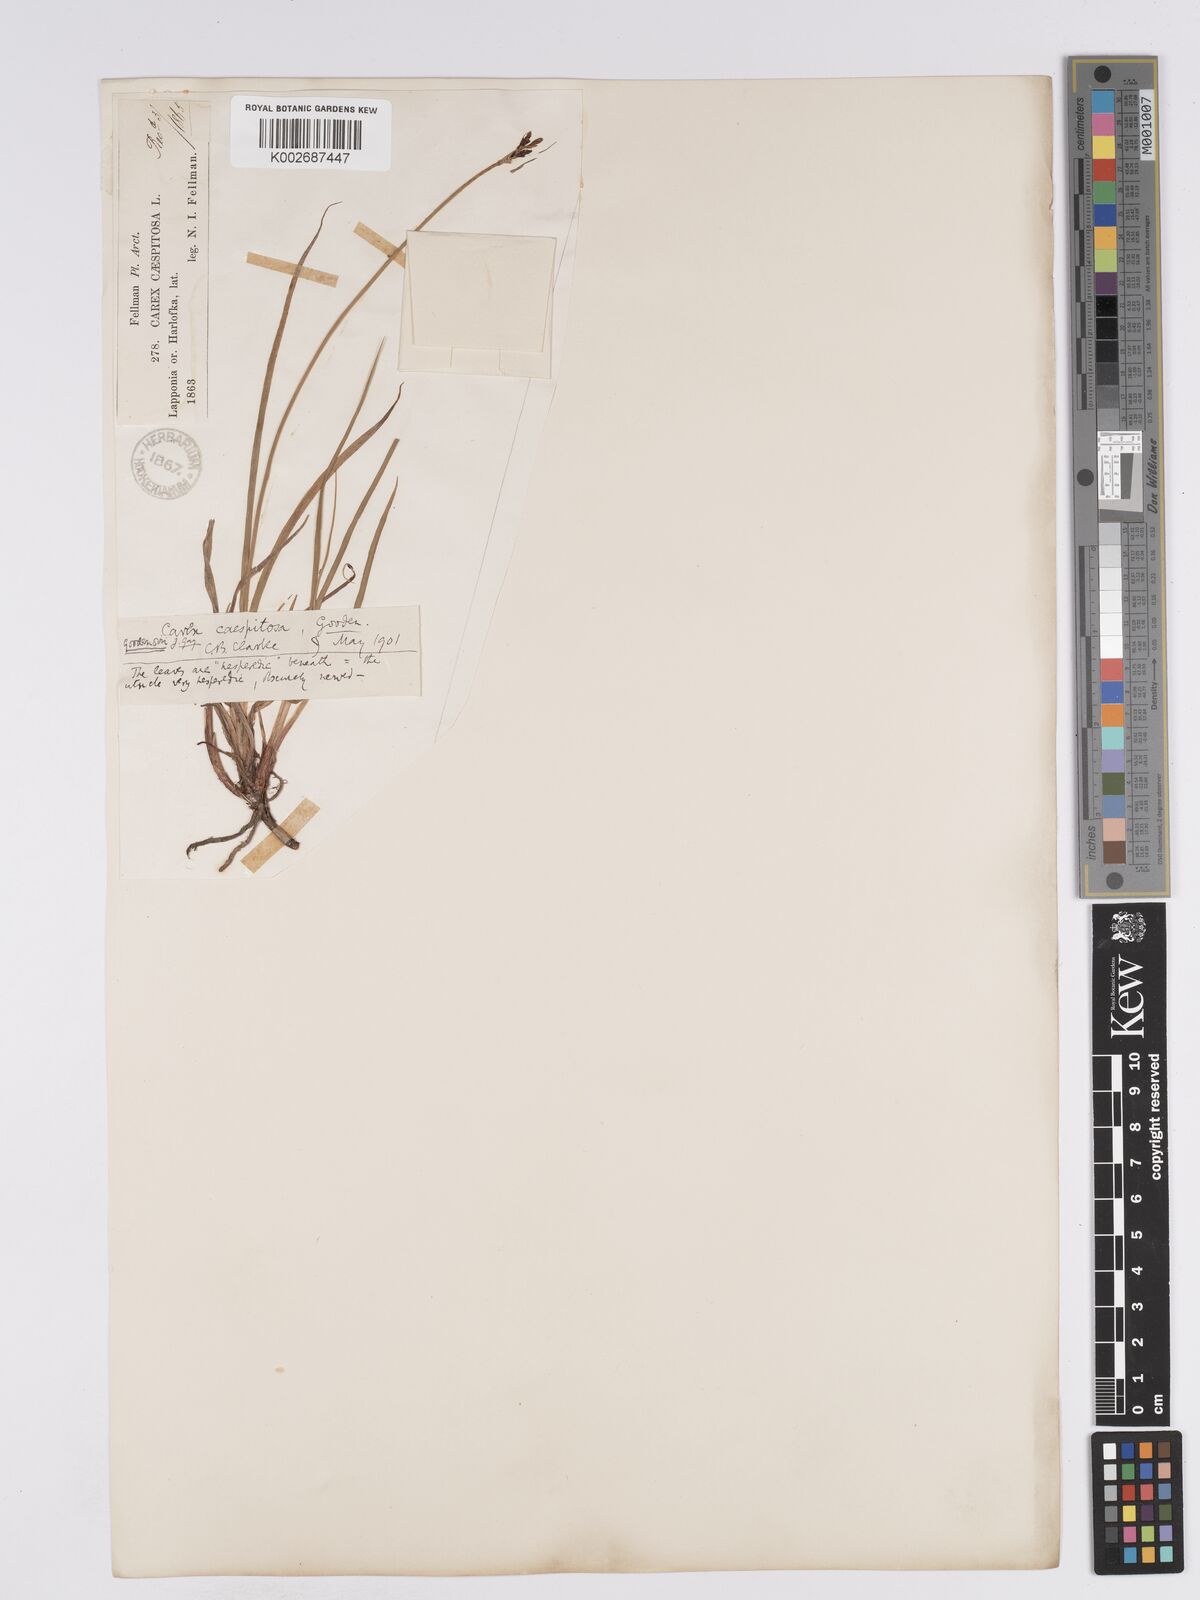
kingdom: Plantae
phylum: Tracheophyta
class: Liliopsida
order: Poales
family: Cyperaceae
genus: Carex
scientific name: Carex nigra
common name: Common sedge
